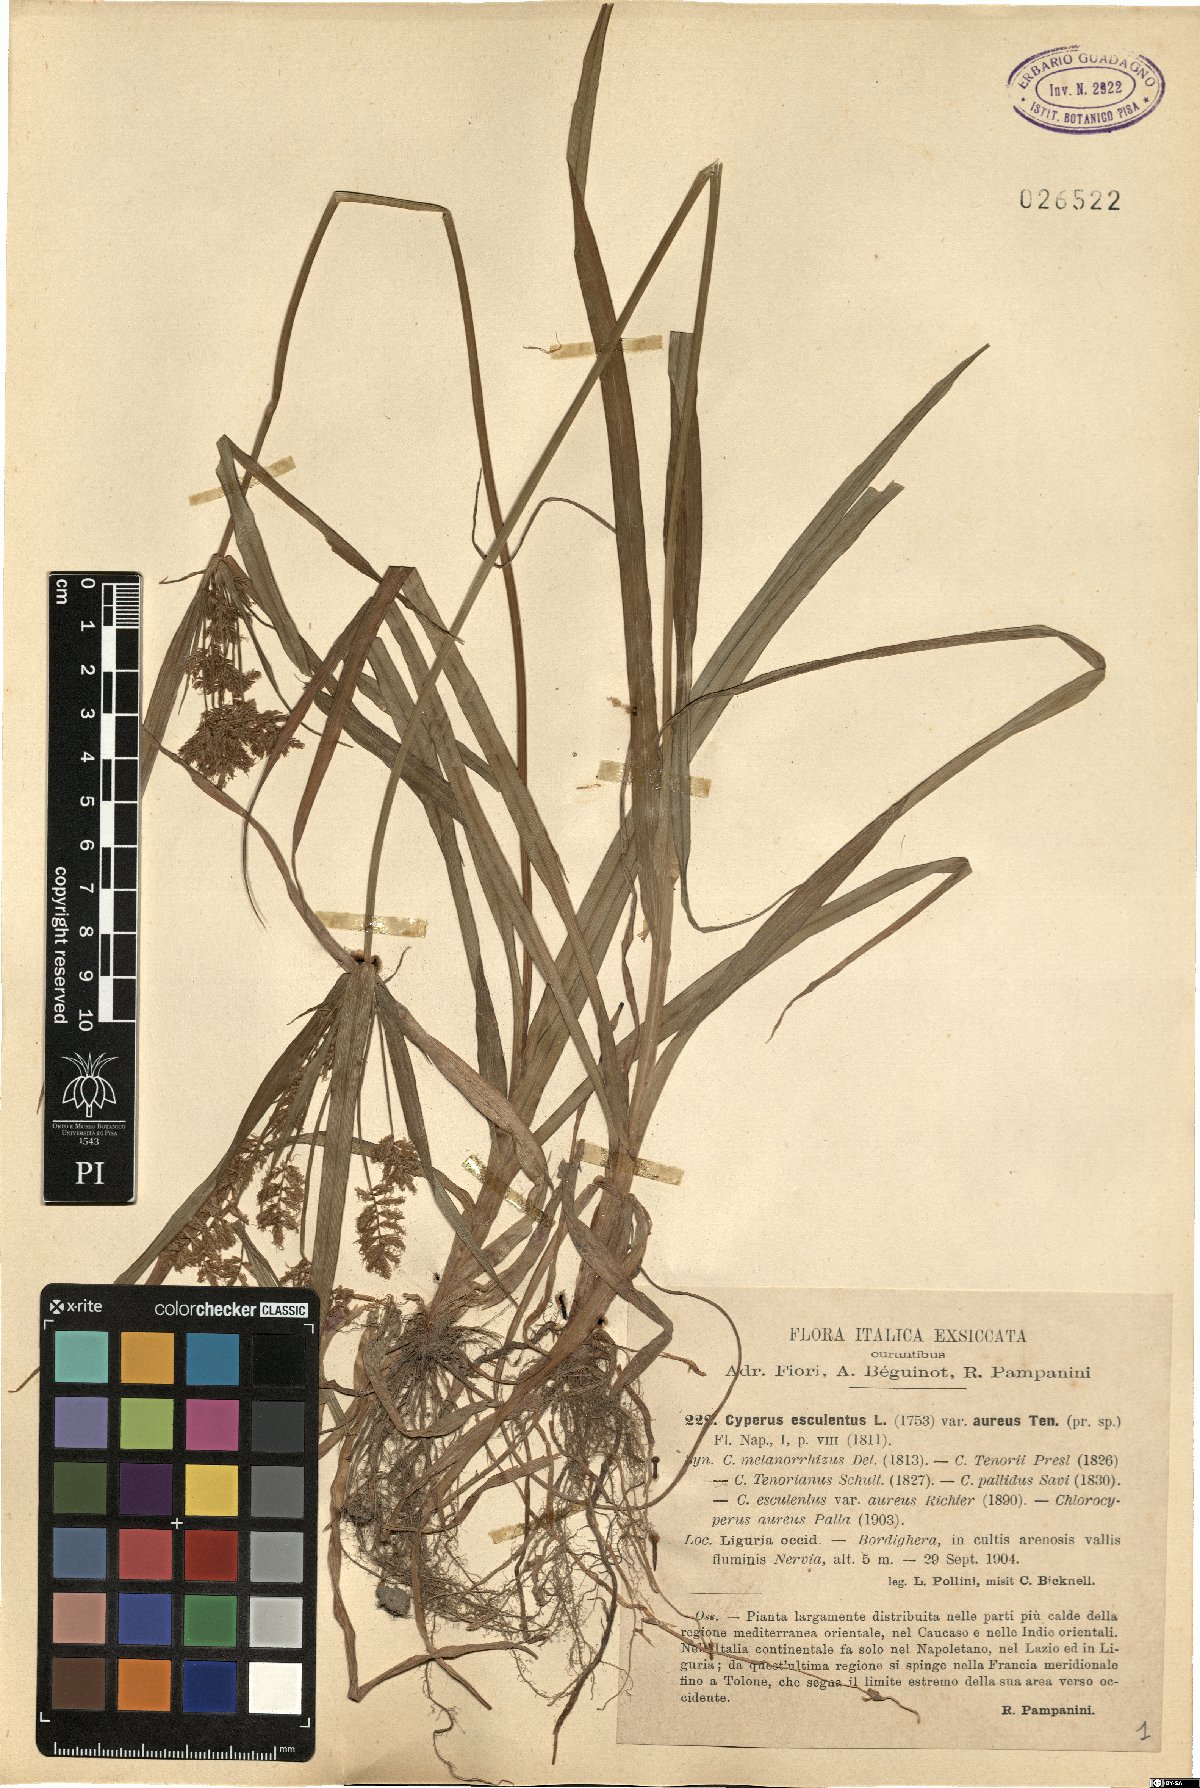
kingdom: Plantae
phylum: Tracheophyta
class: Liliopsida
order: Poales
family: Cyperaceae
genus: Cyperus
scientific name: Cyperus esculentus
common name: Yellow nutsedge
